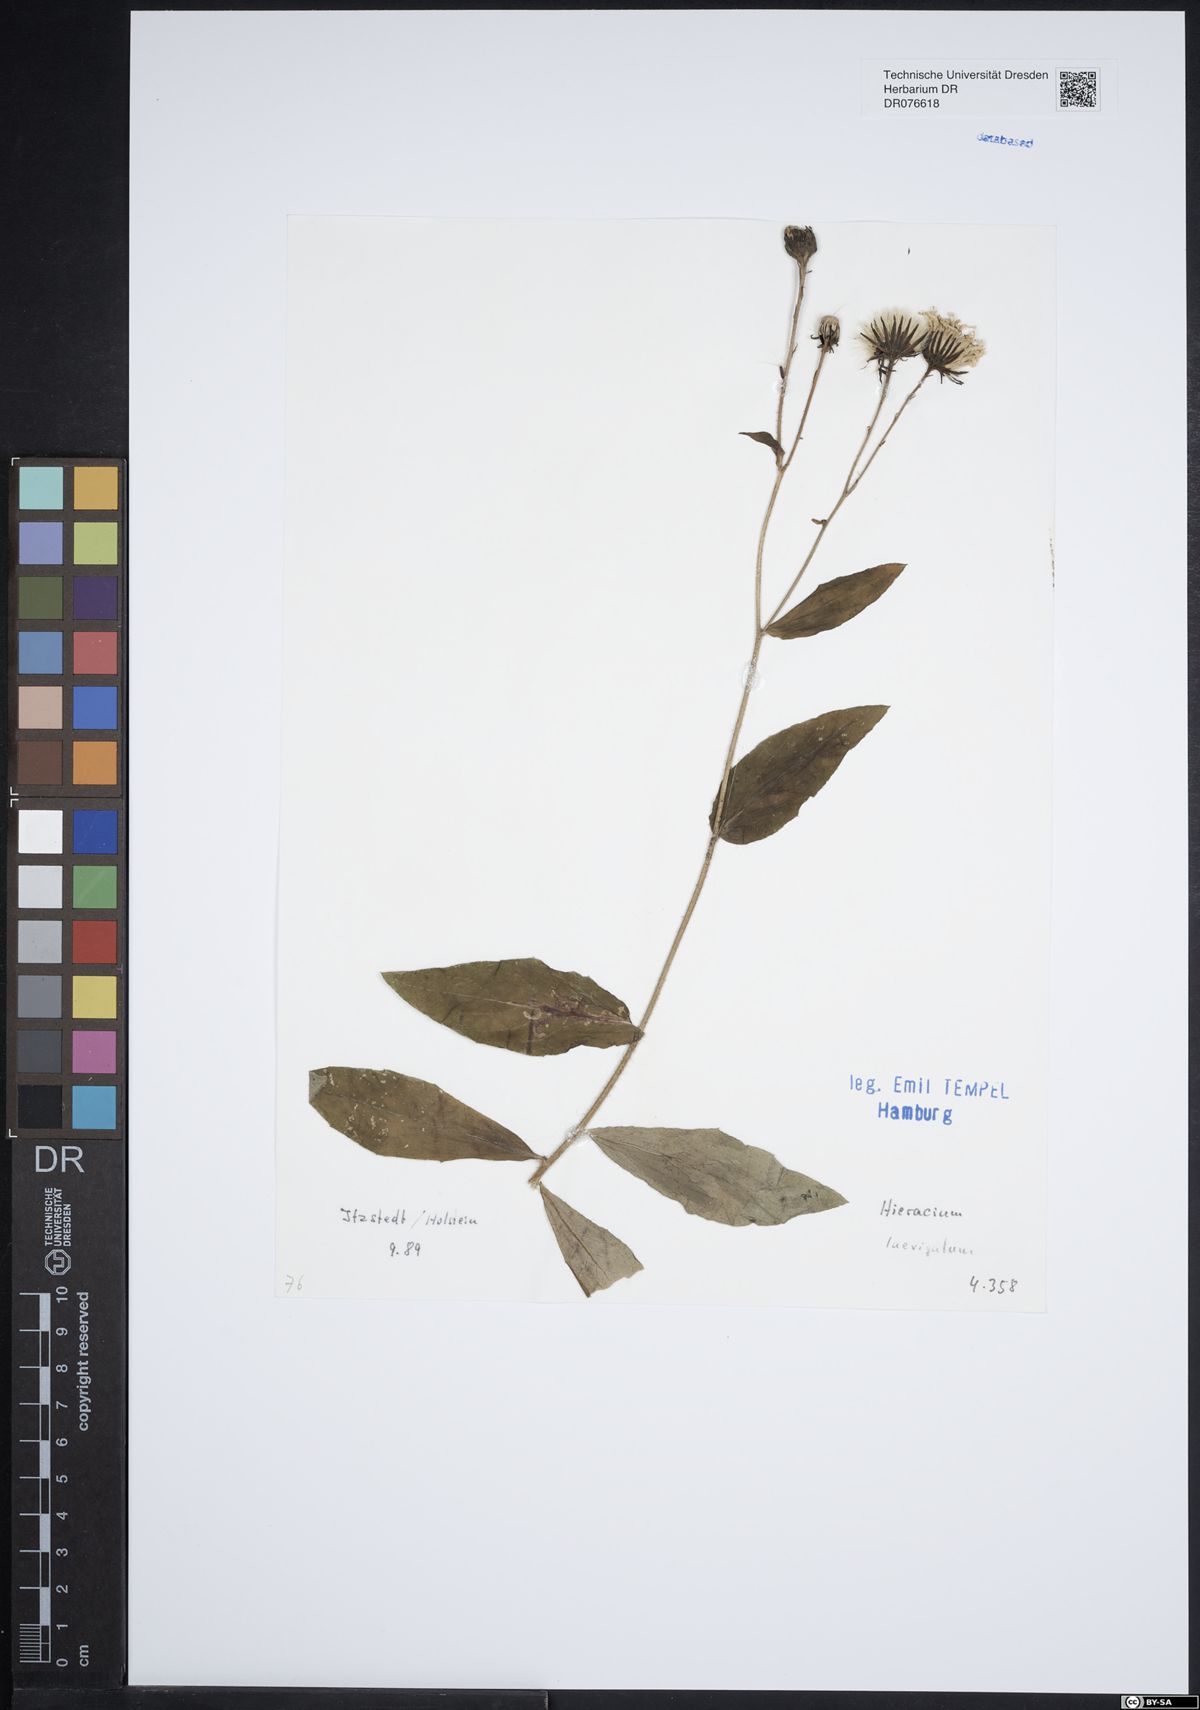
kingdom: Plantae
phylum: Tracheophyta
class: Magnoliopsida
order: Asterales
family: Asteraceae
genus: Hieracium
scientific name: Hieracium laevigatum
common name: Smooth hawkweed
